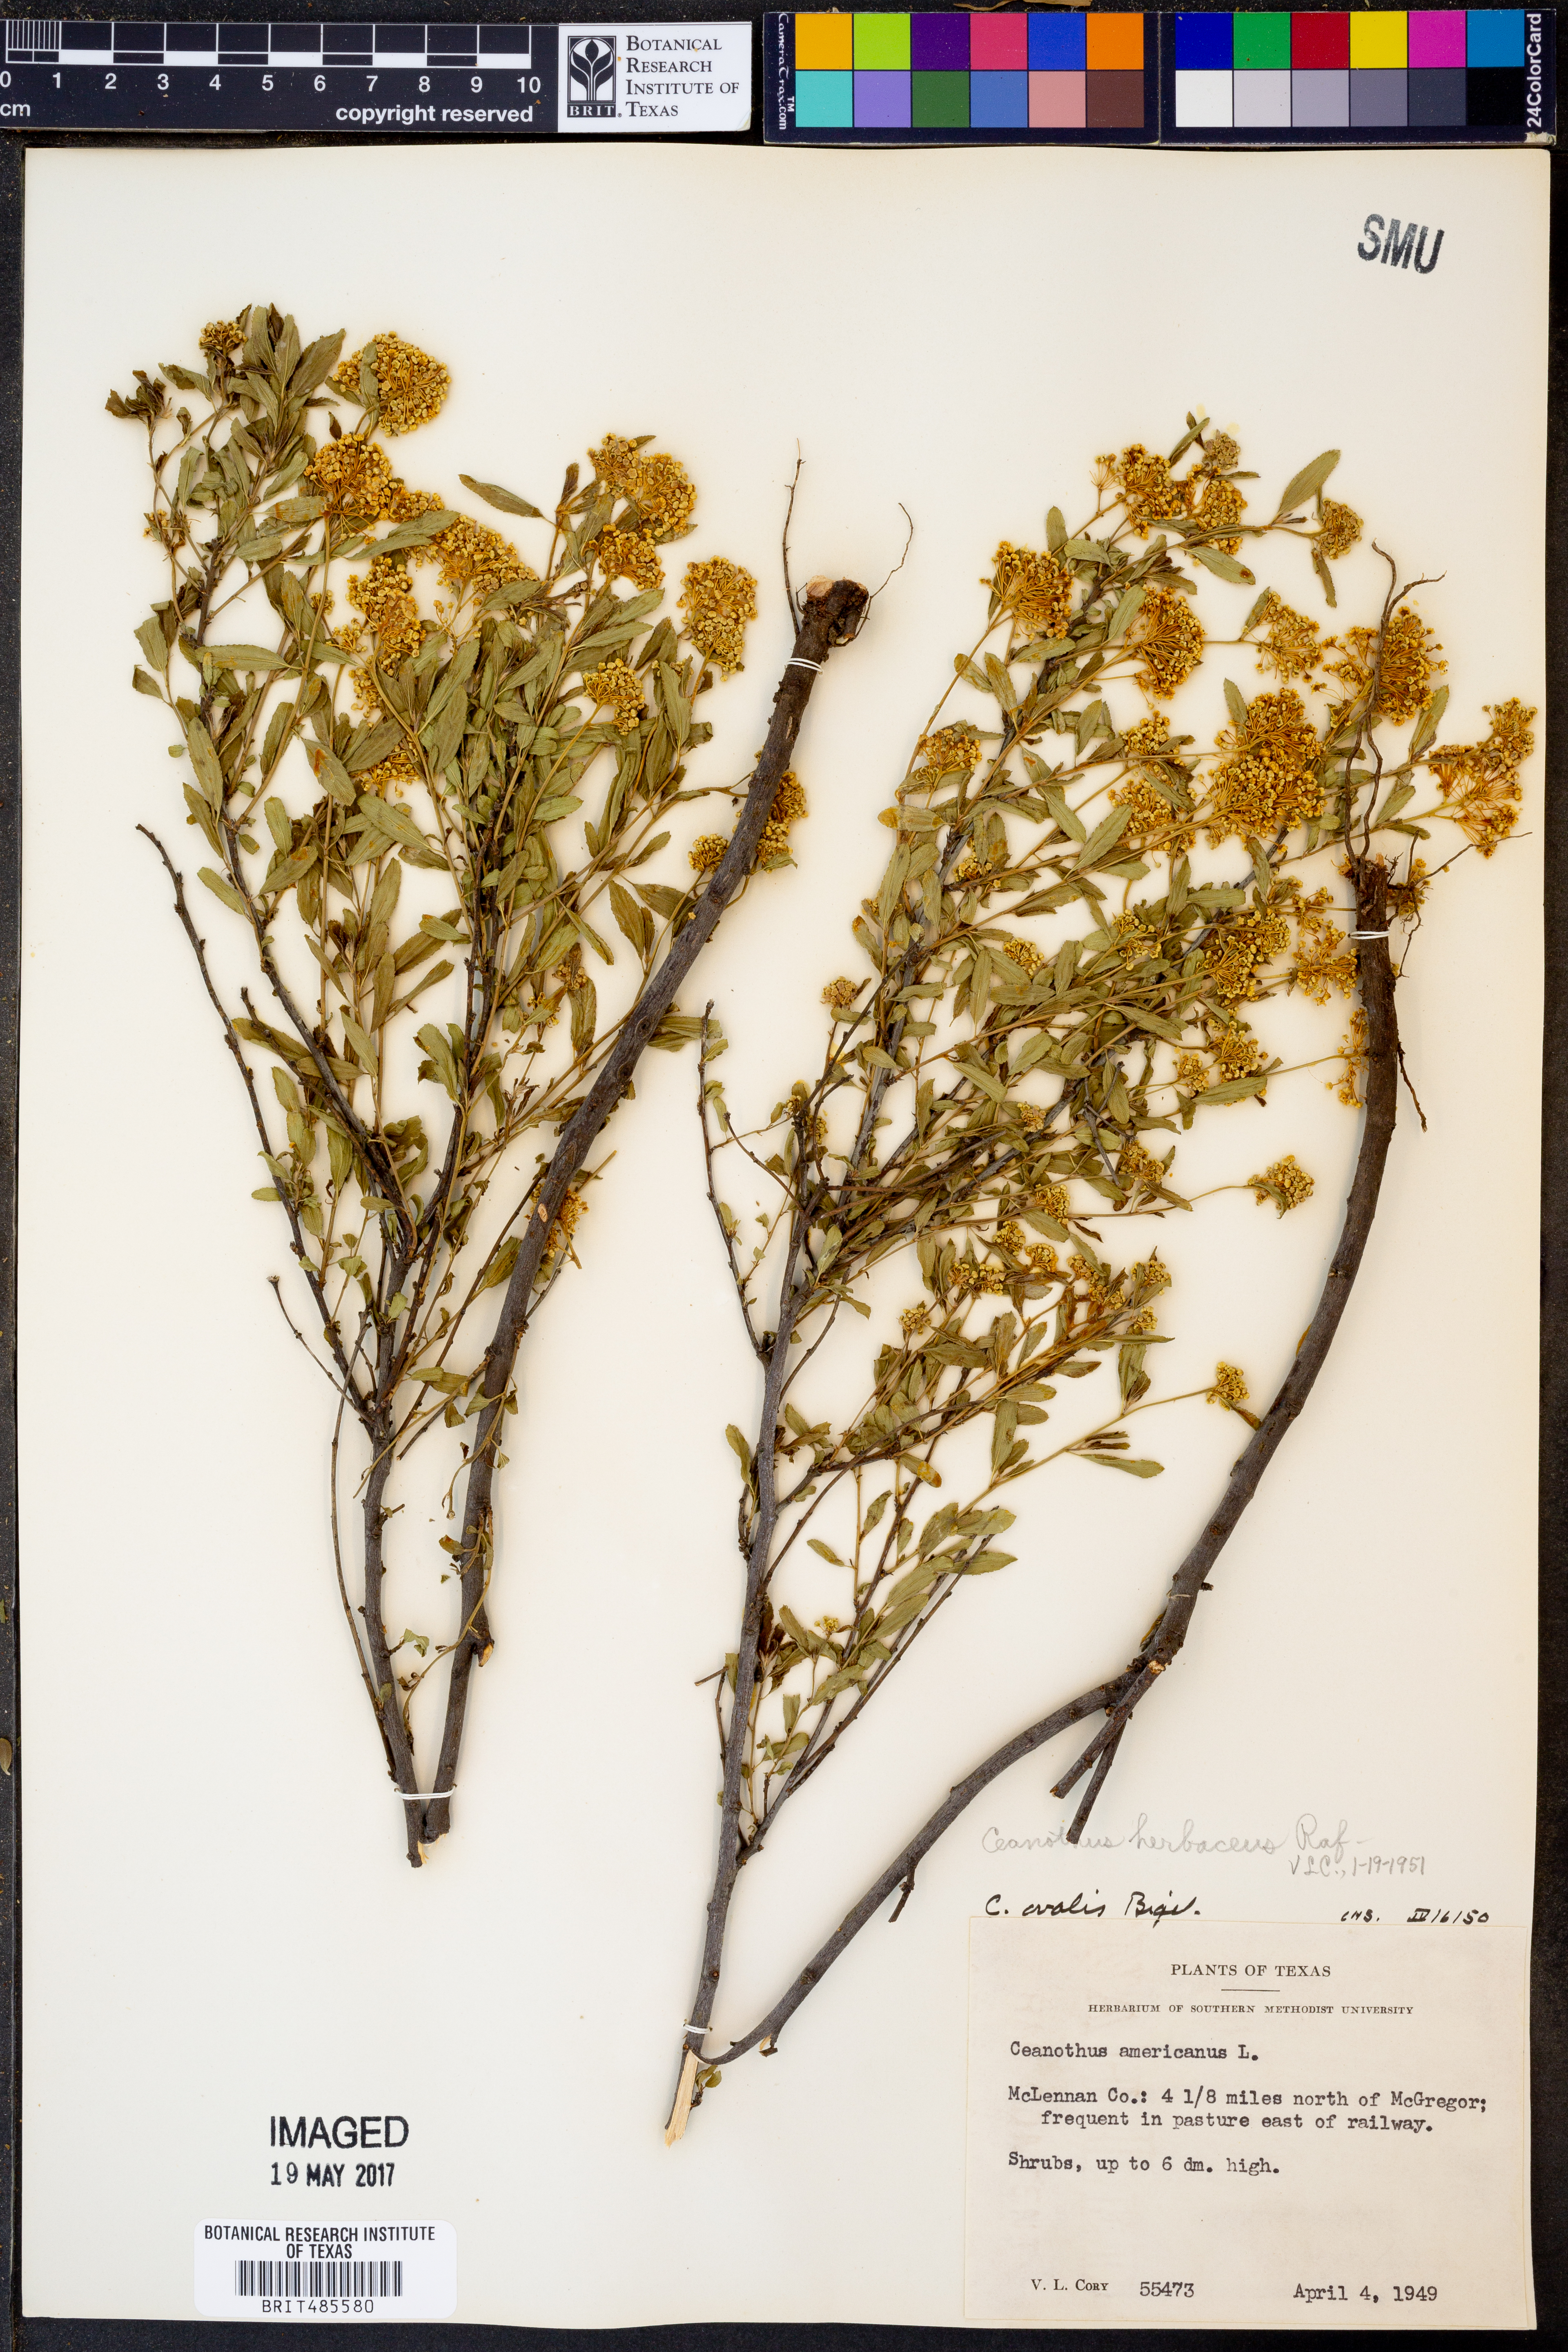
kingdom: Plantae
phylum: Tracheophyta
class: Magnoliopsida
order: Rosales
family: Rhamnaceae
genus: Ceanothus
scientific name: Ceanothus herbaceus
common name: Inland ceanothus
